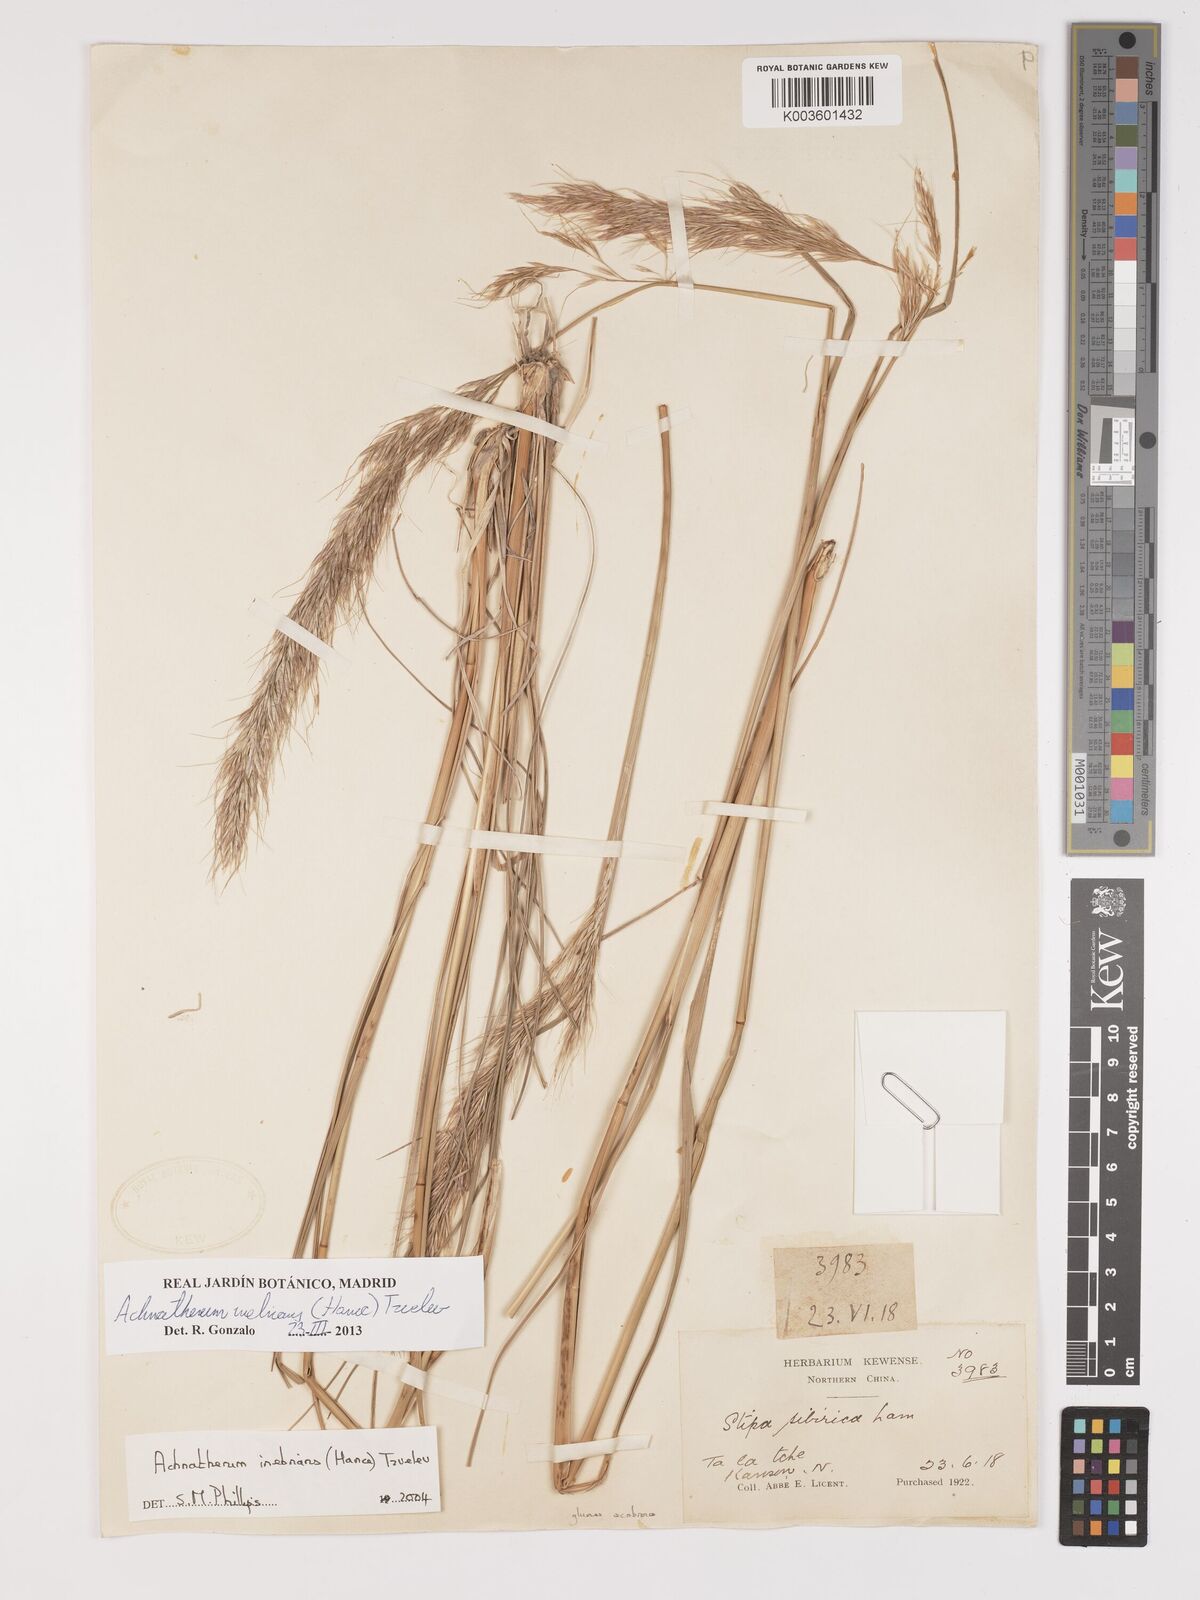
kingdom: Plantae
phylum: Tracheophyta
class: Liliopsida
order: Poales
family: Poaceae
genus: Achnatherum
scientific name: Achnatherum inebrians
